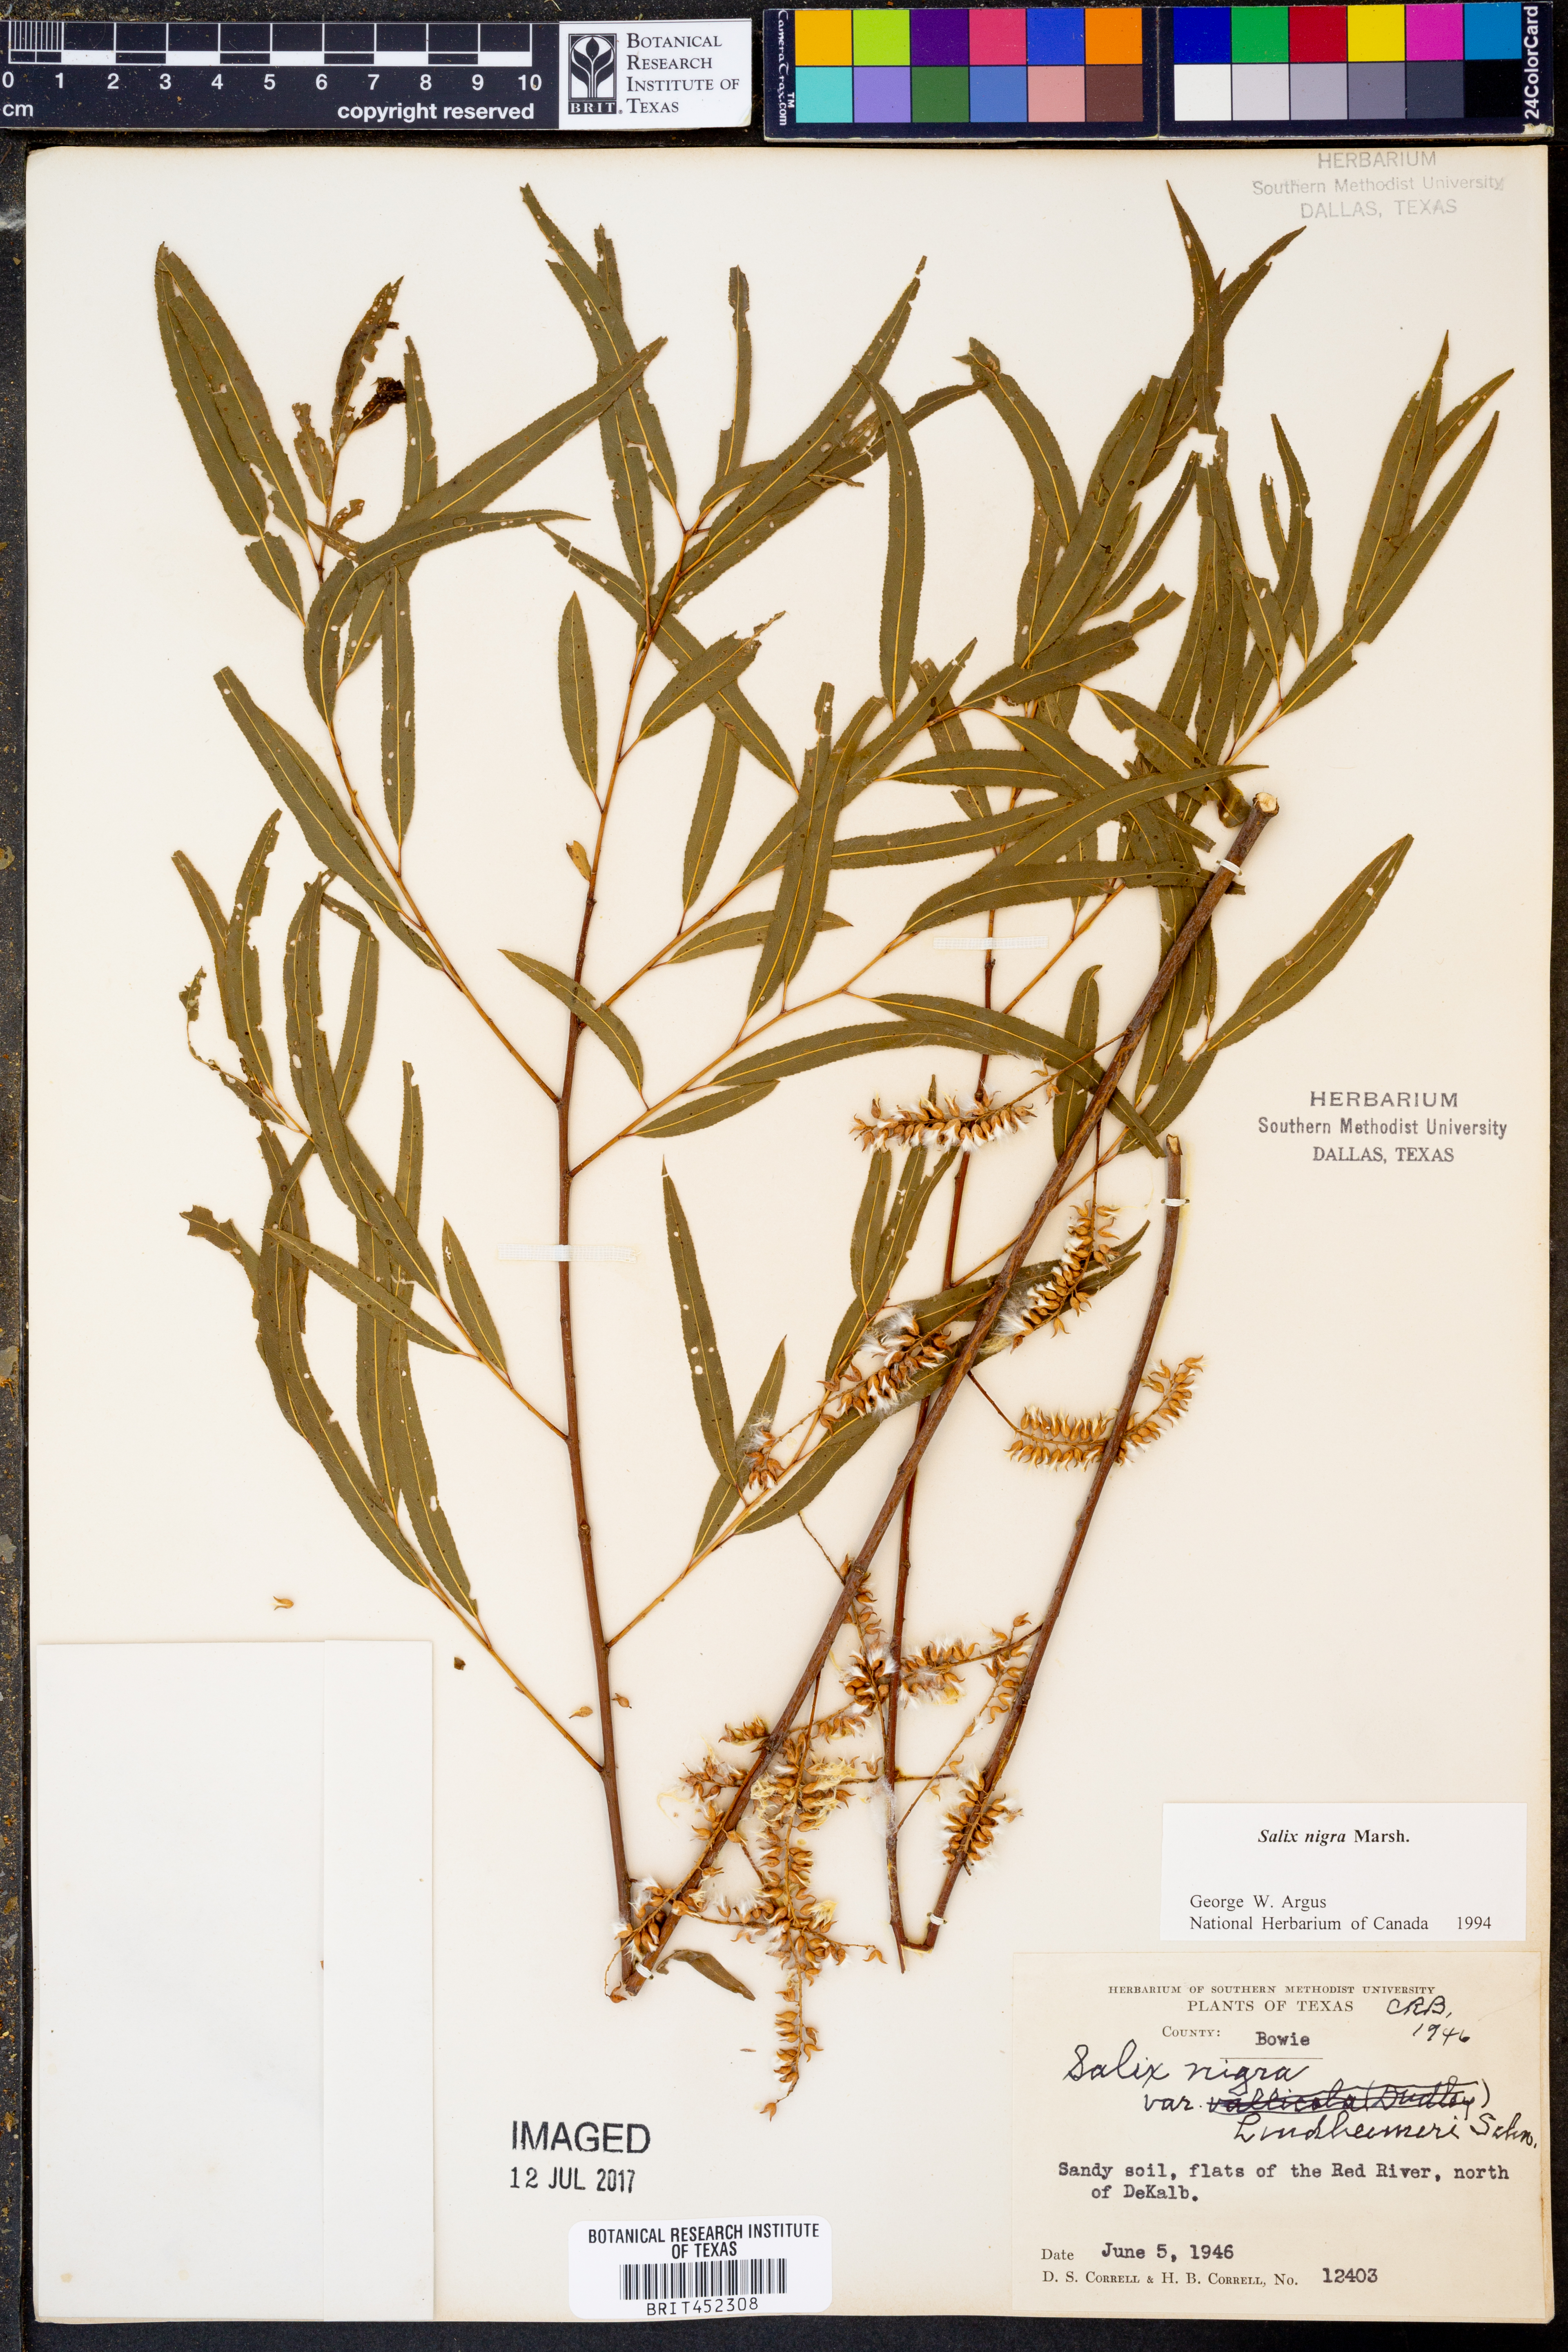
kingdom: Plantae
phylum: Tracheophyta
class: Magnoliopsida
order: Malpighiales
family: Salicaceae
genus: Salix
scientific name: Salix nigra
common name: Black willow
